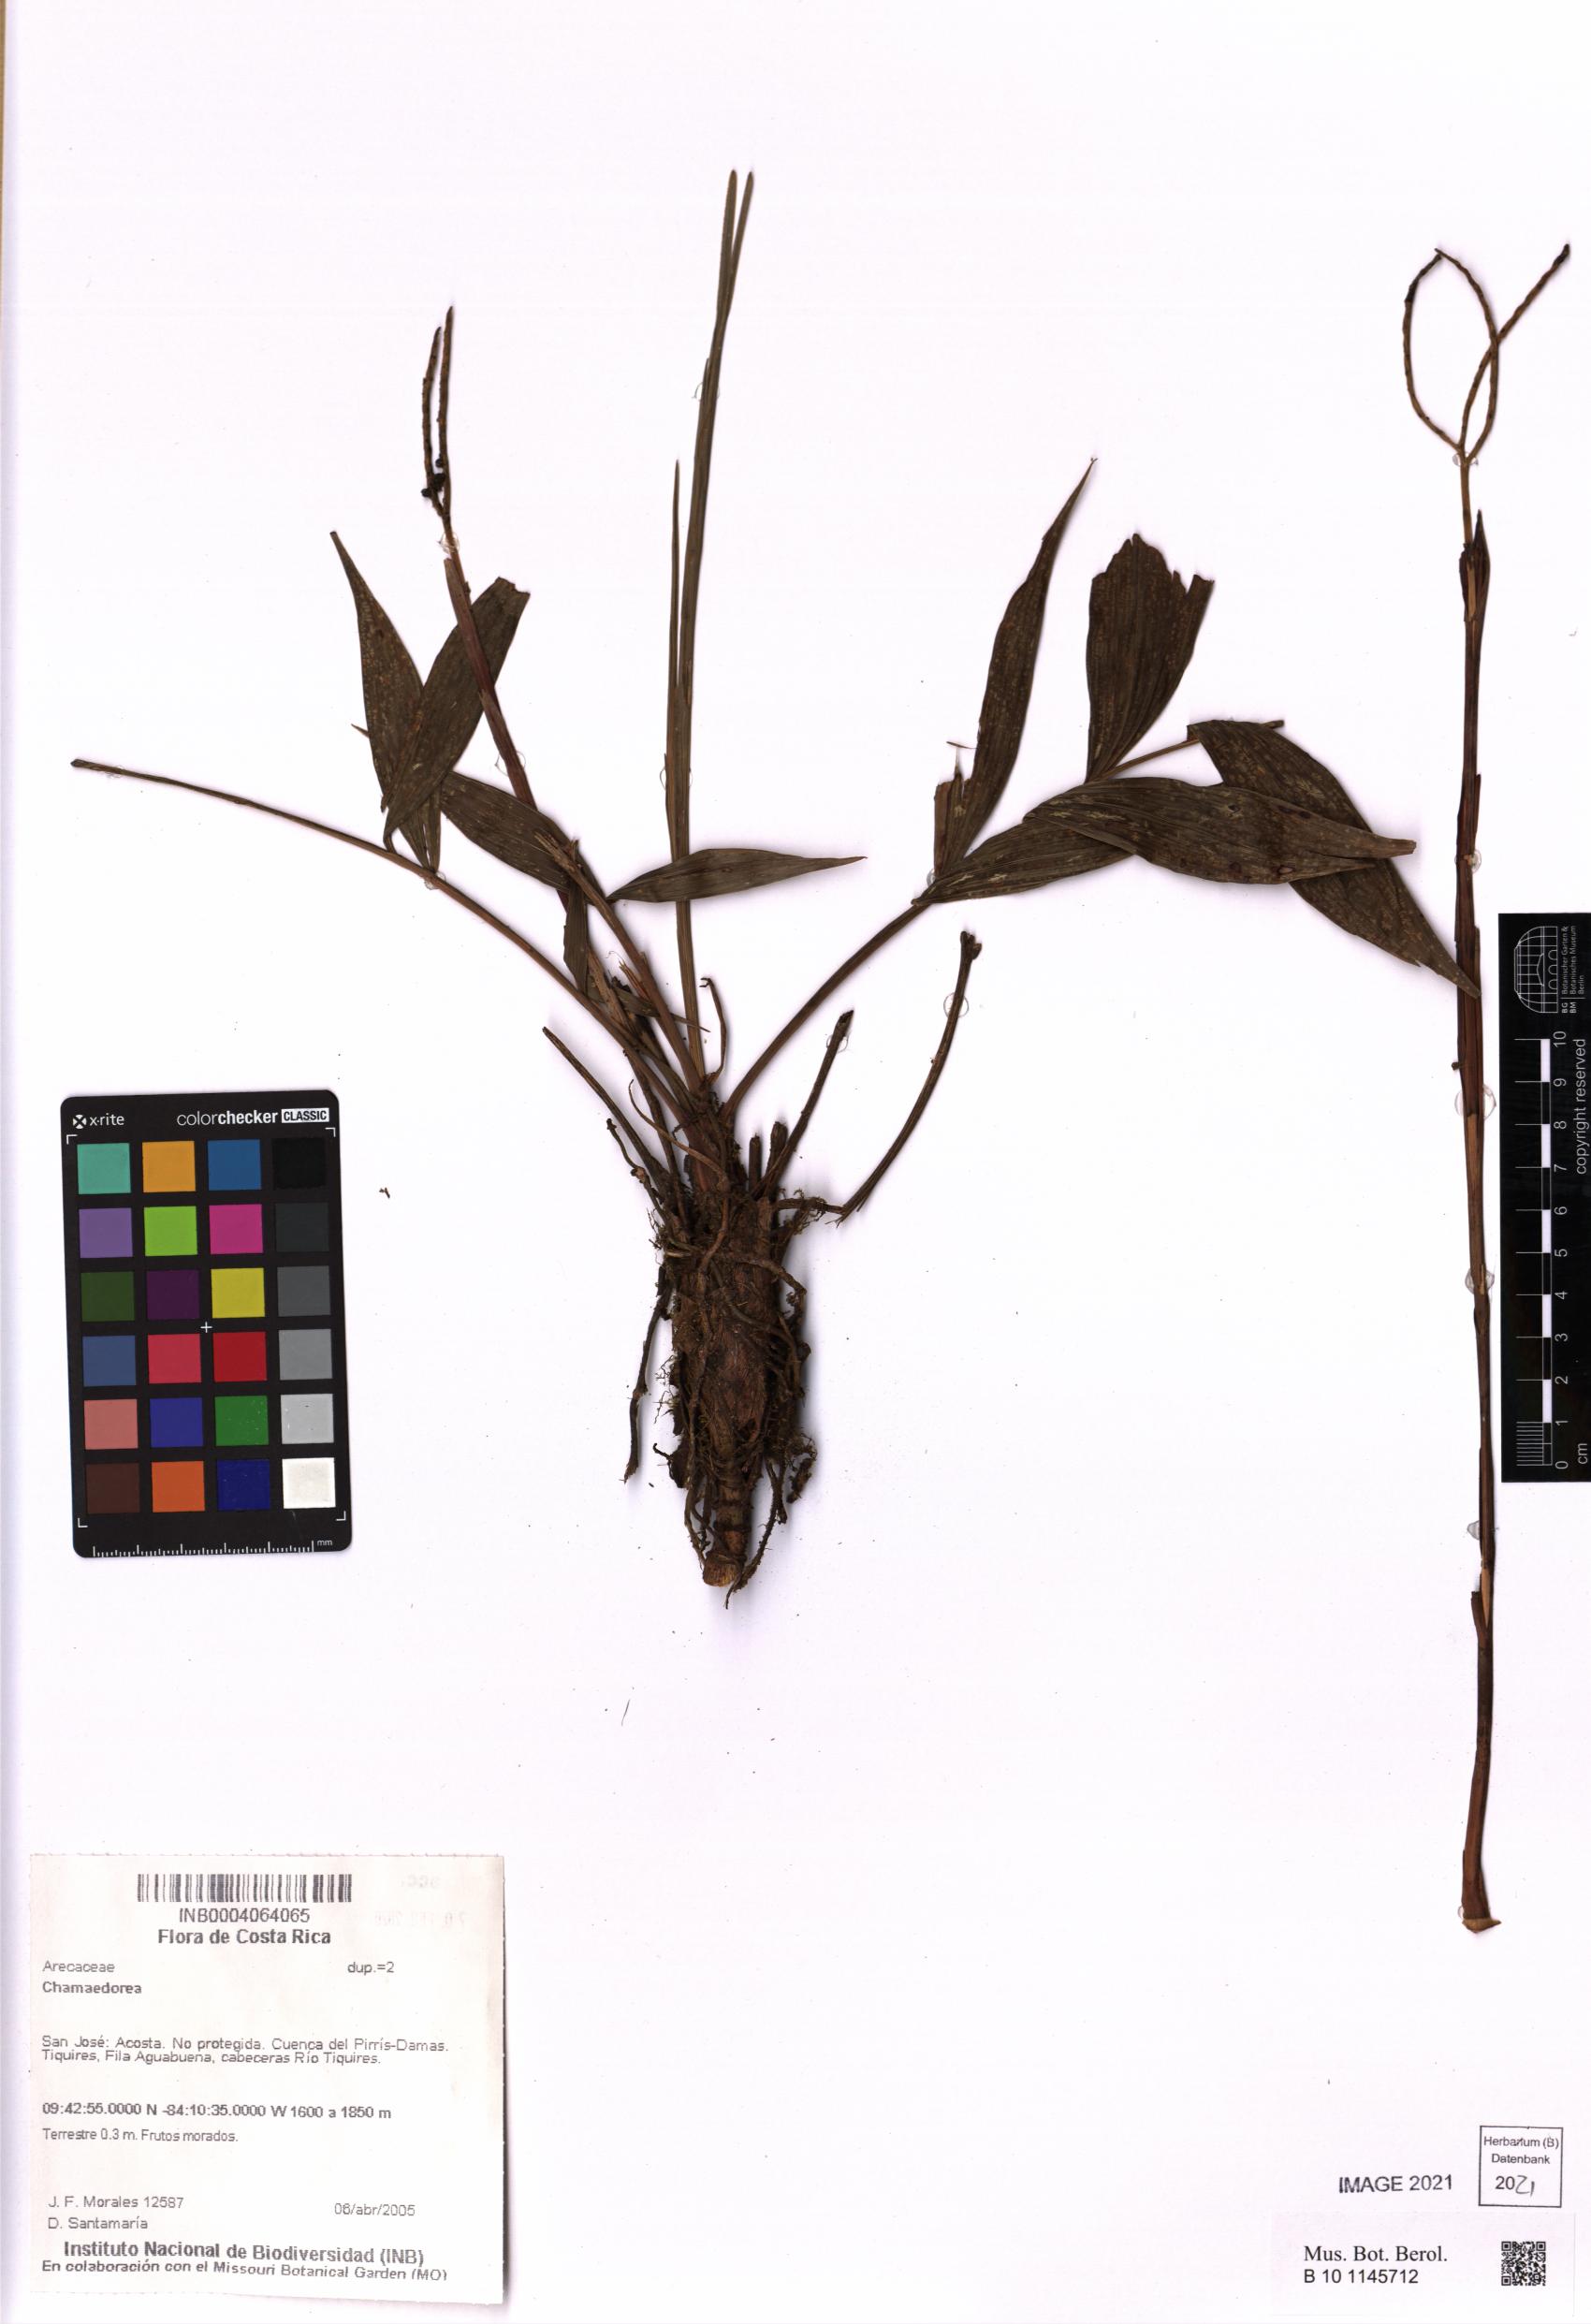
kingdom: Plantae
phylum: Tracheophyta
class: Liliopsida
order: Arecales
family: Arecaceae
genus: Chamaedorea
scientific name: Chamaedorea
